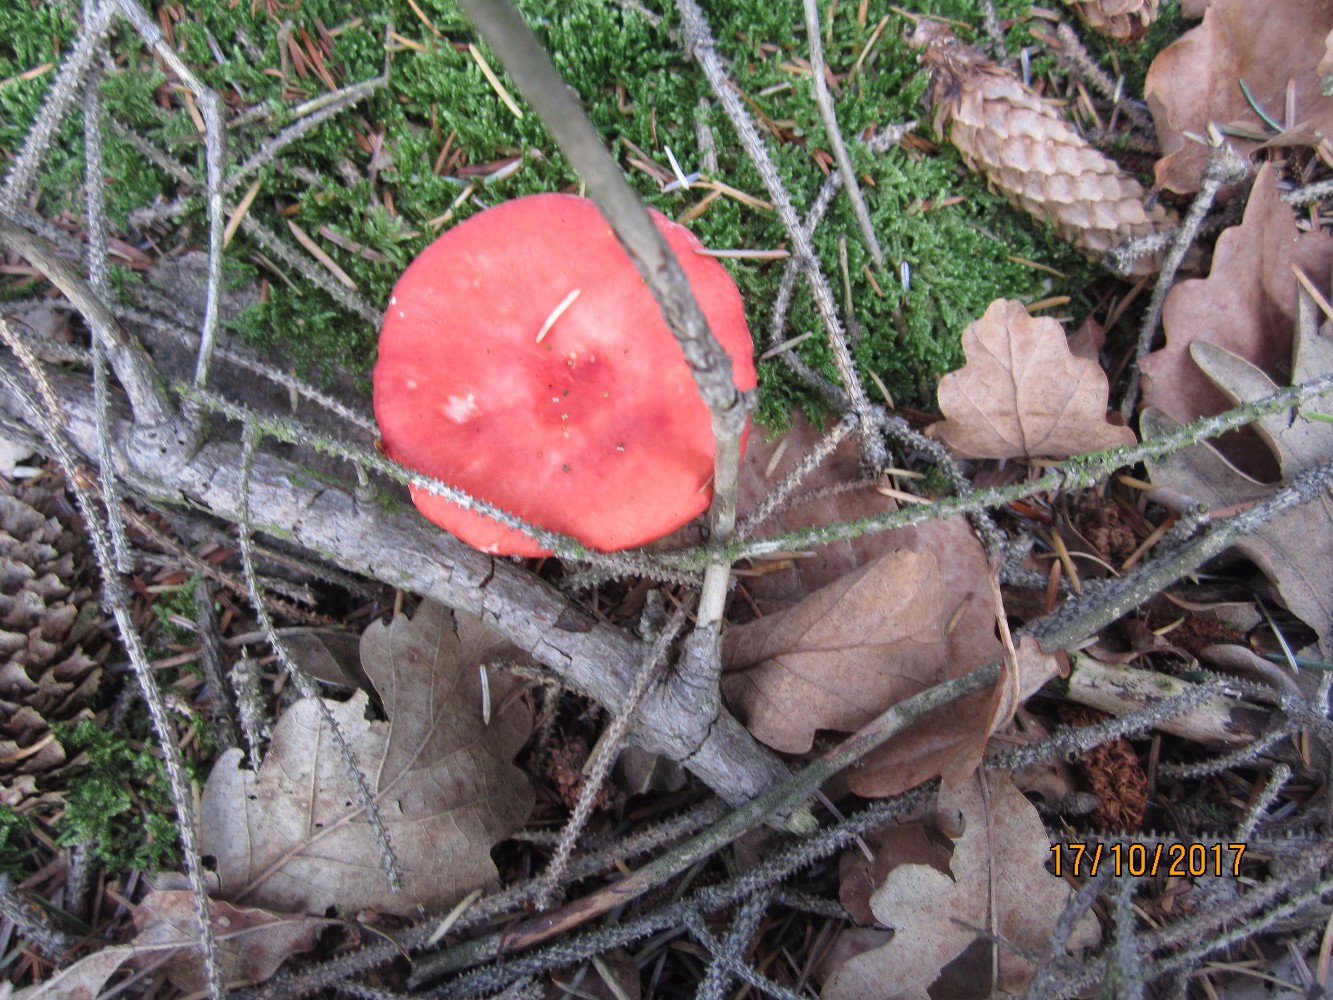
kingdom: Fungi
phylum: Basidiomycota
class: Agaricomycetes
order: Russulales
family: Russulaceae
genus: Russula
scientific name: Russula emetica
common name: stor gift-skørhat
